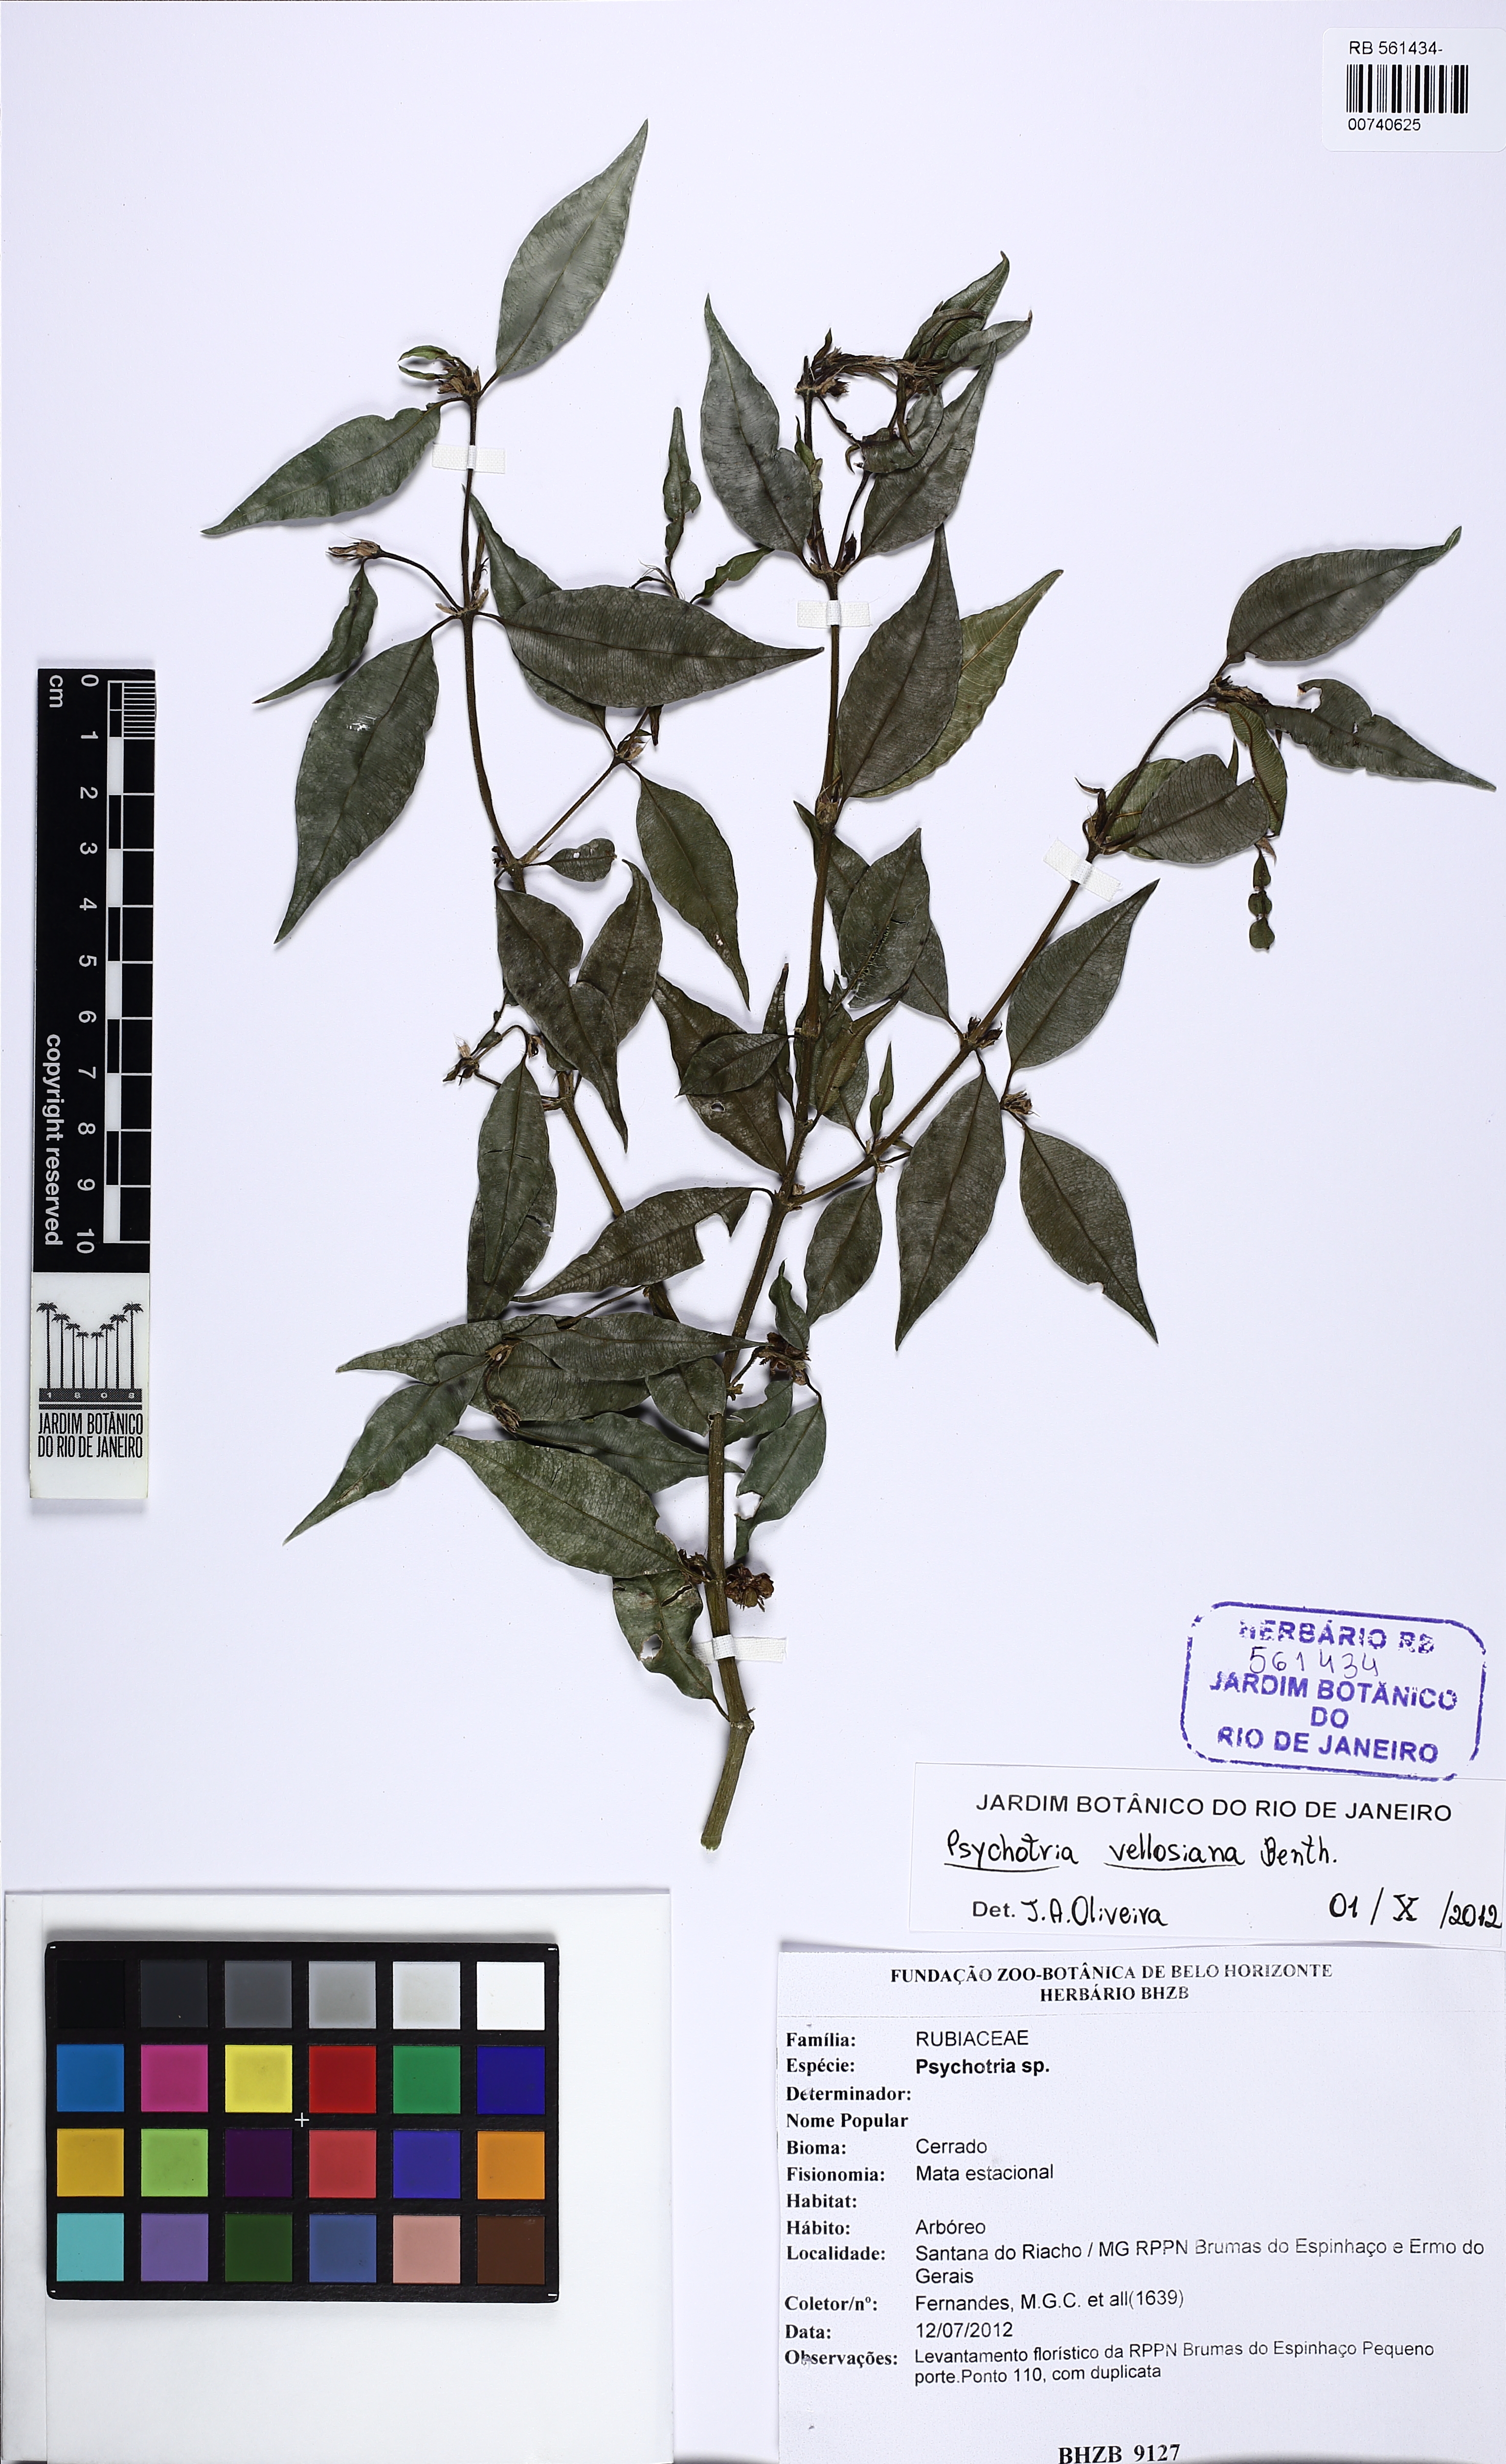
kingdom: Plantae
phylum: Tracheophyta
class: Magnoliopsida
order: Gentianales
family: Rubiaceae
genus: Palicourea
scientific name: Palicourea sessilis
